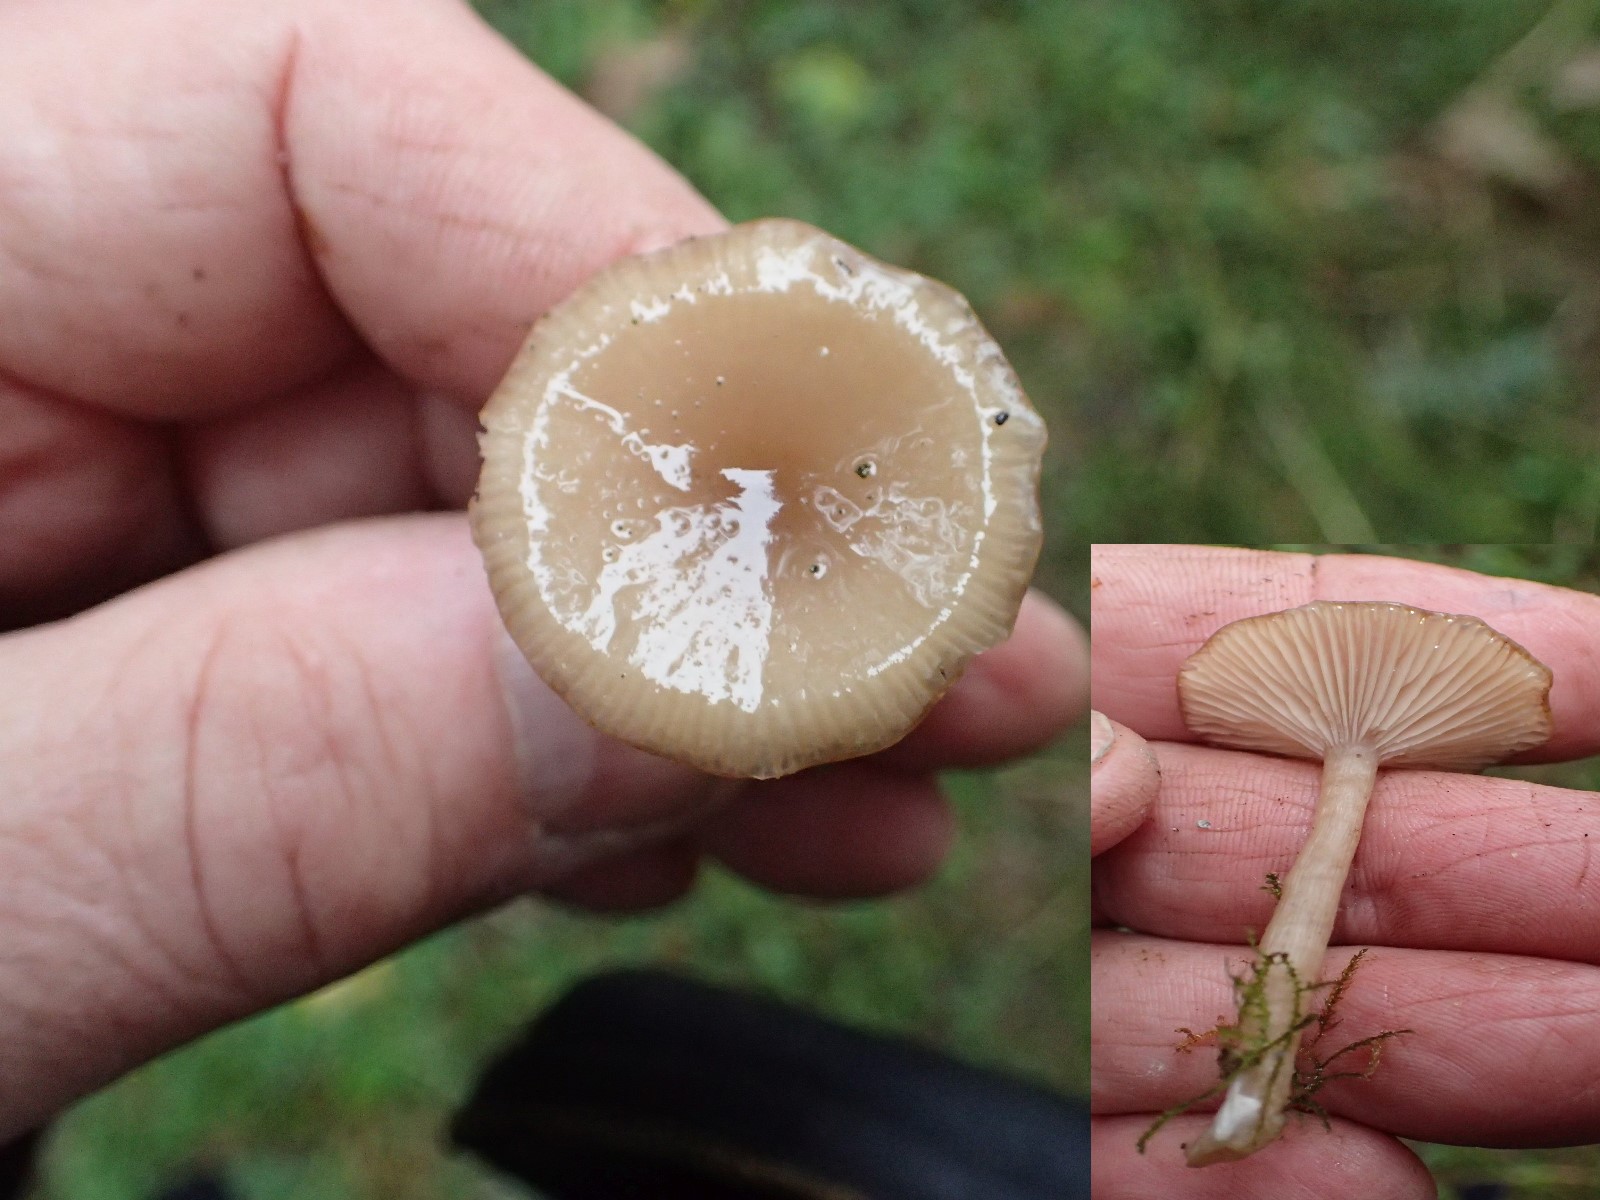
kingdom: Fungi
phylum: Basidiomycota
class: Agaricomycetes
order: Agaricales
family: Tricholomataceae
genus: Clitocybe
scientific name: Clitocybe fragrans
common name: vellugtende tragthat
